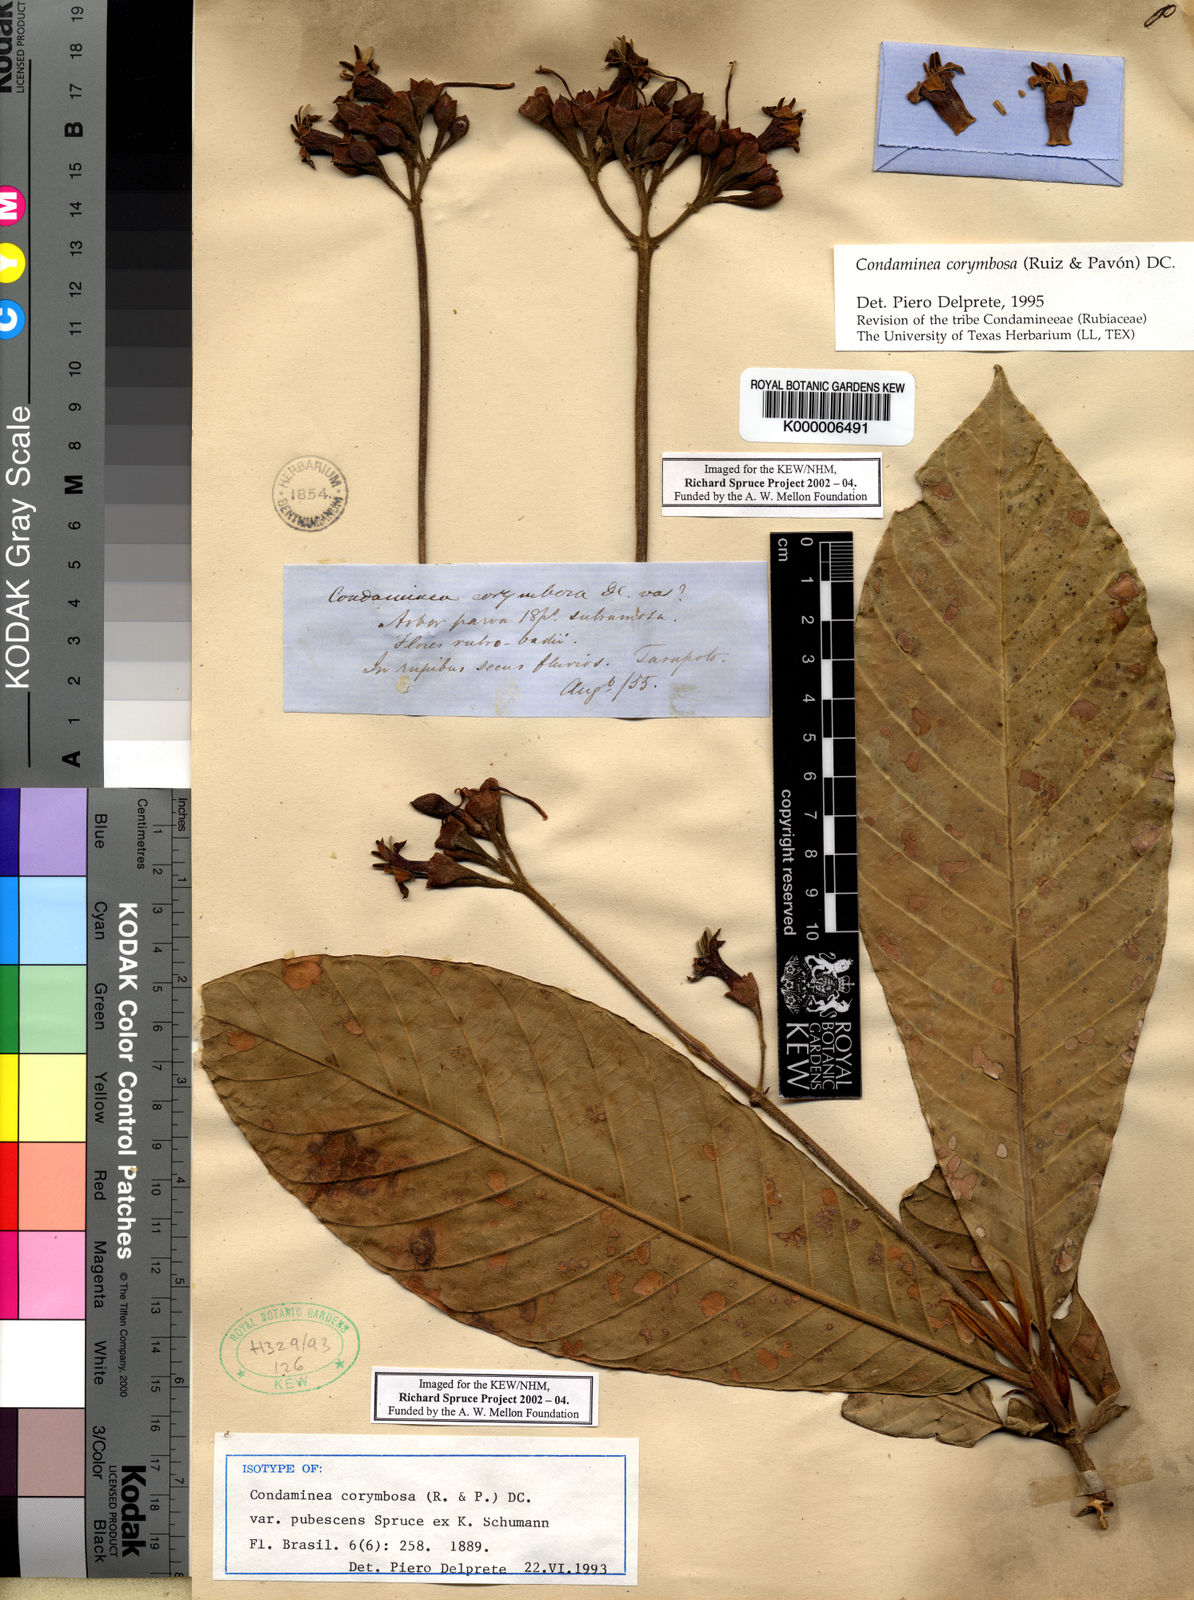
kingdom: Plantae
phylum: Tracheophyta
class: Magnoliopsida
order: Gentianales
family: Rubiaceae
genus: Condaminea
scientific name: Condaminea corymbosa
